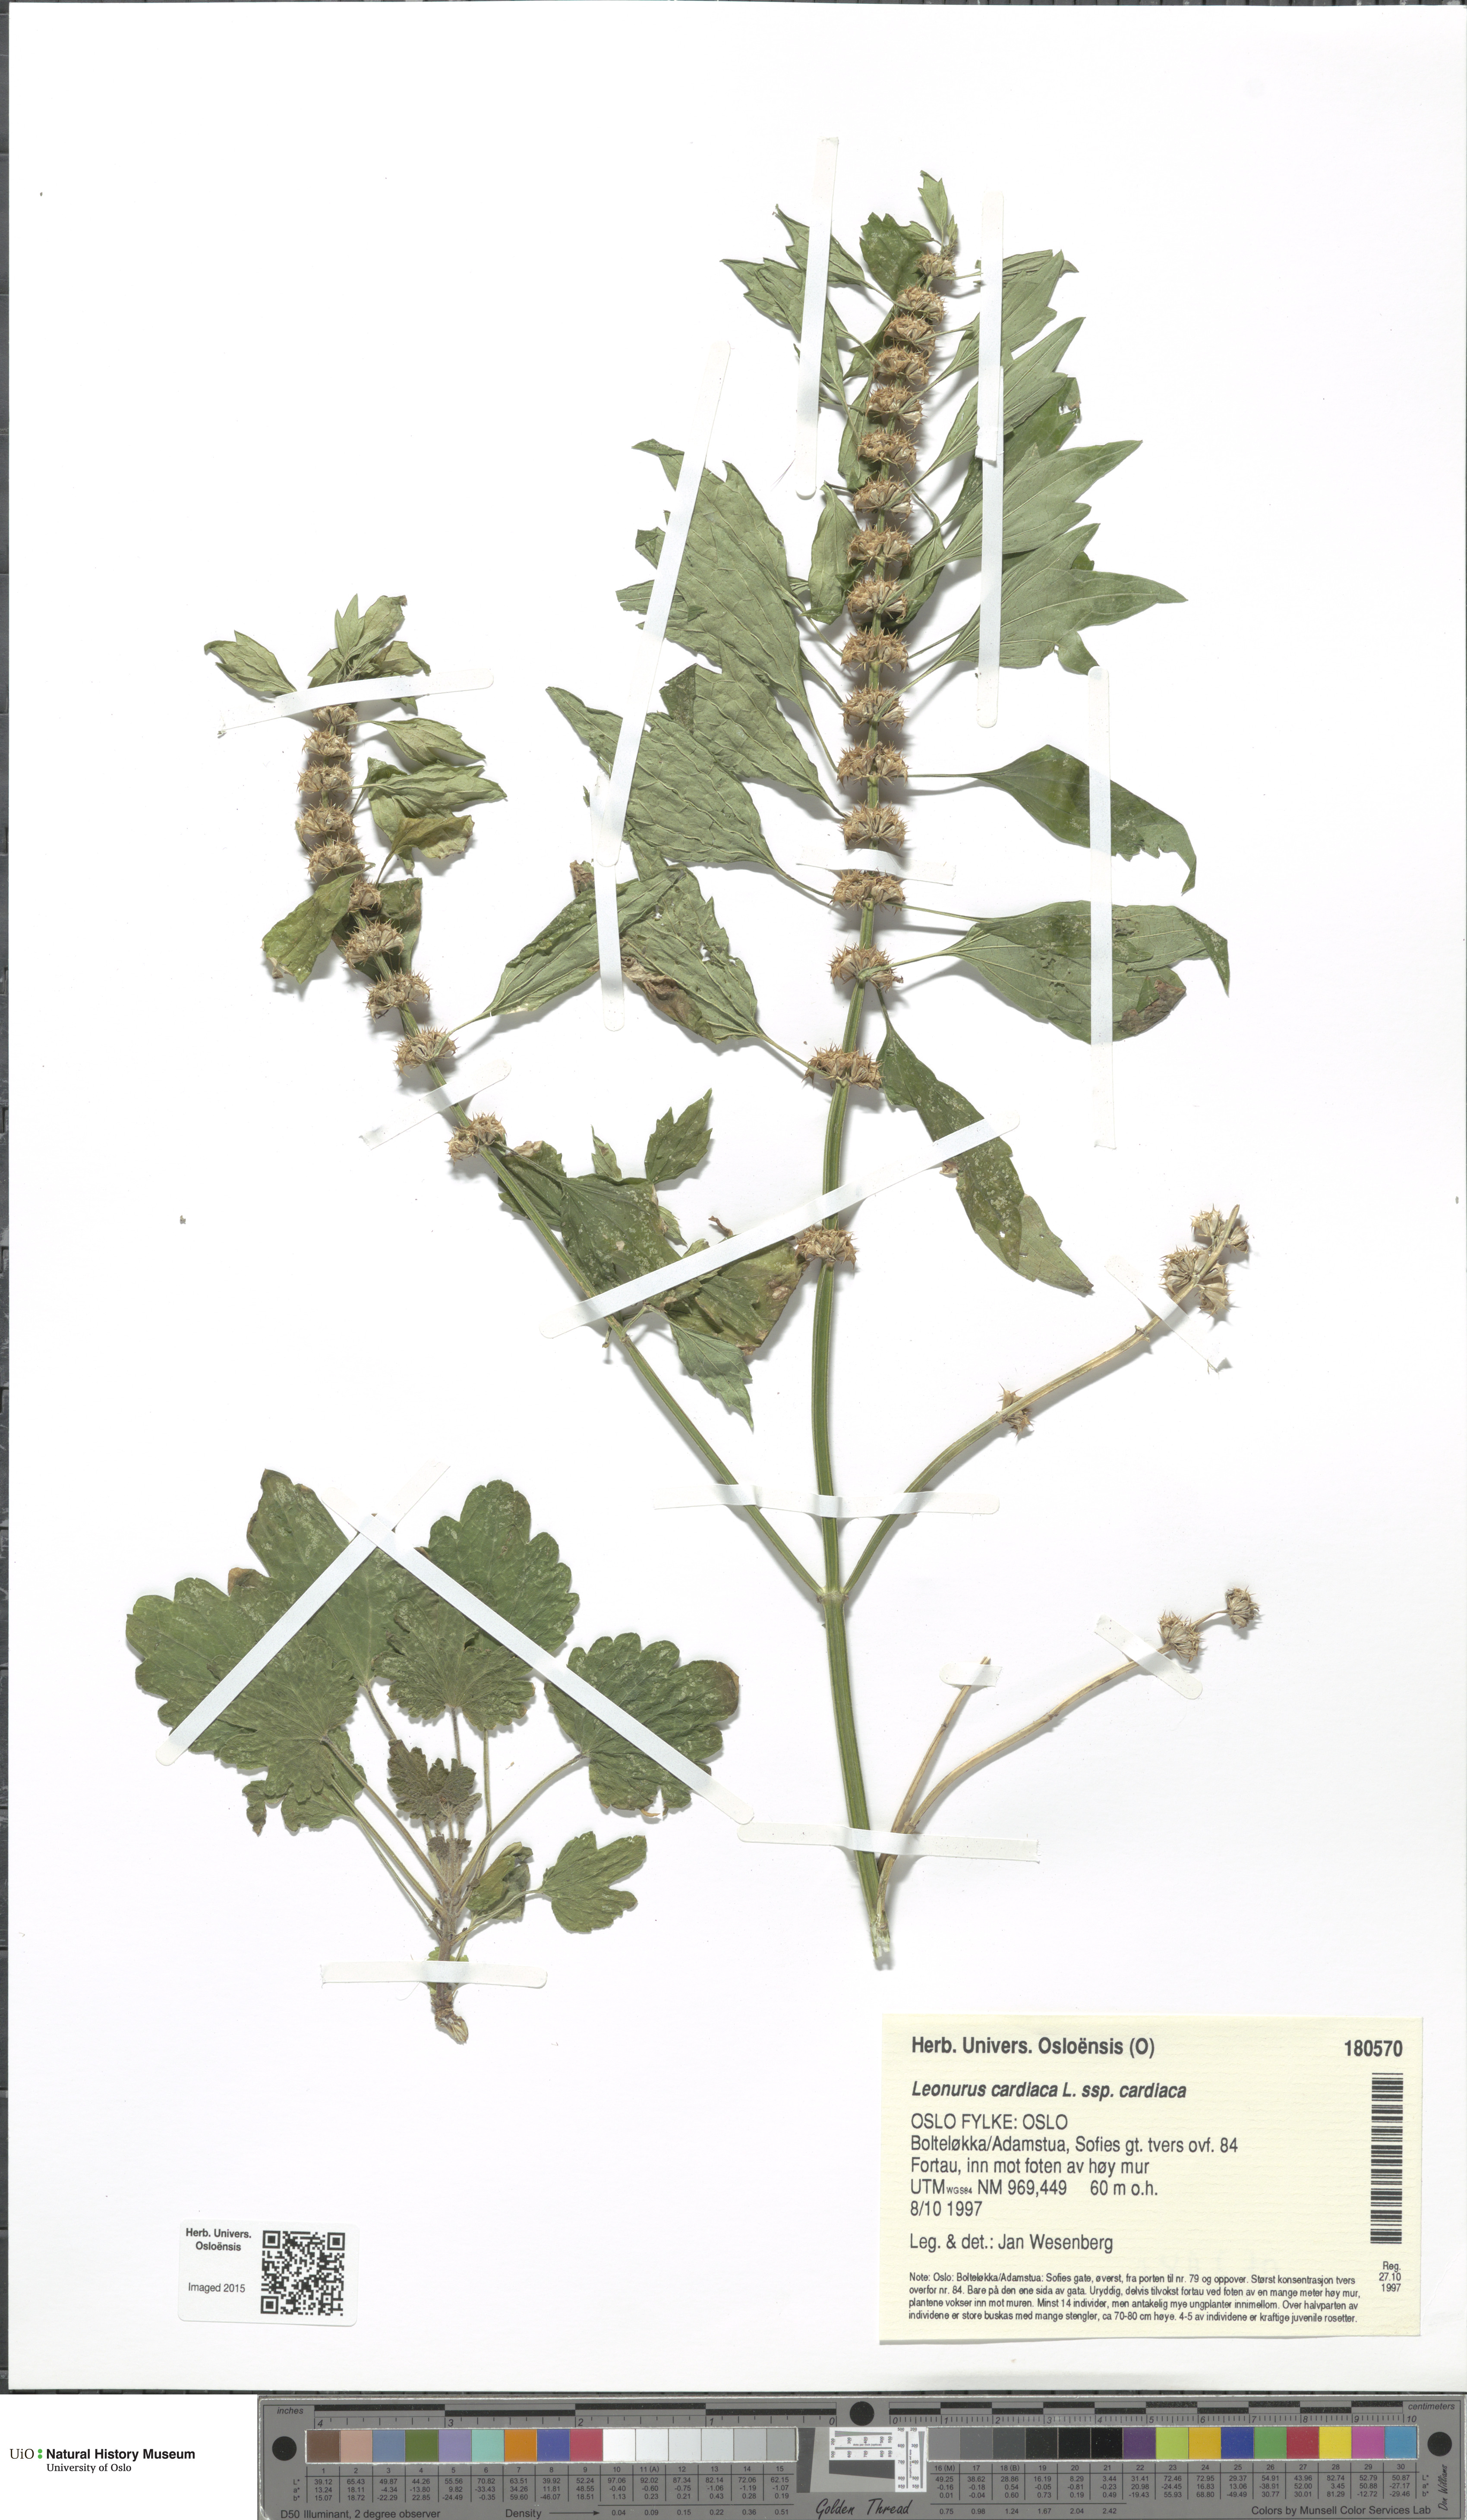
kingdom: Plantae
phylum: Tracheophyta
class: Magnoliopsida
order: Lamiales
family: Lamiaceae
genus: Leonurus
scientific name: Leonurus cardiaca
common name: Motherwort
